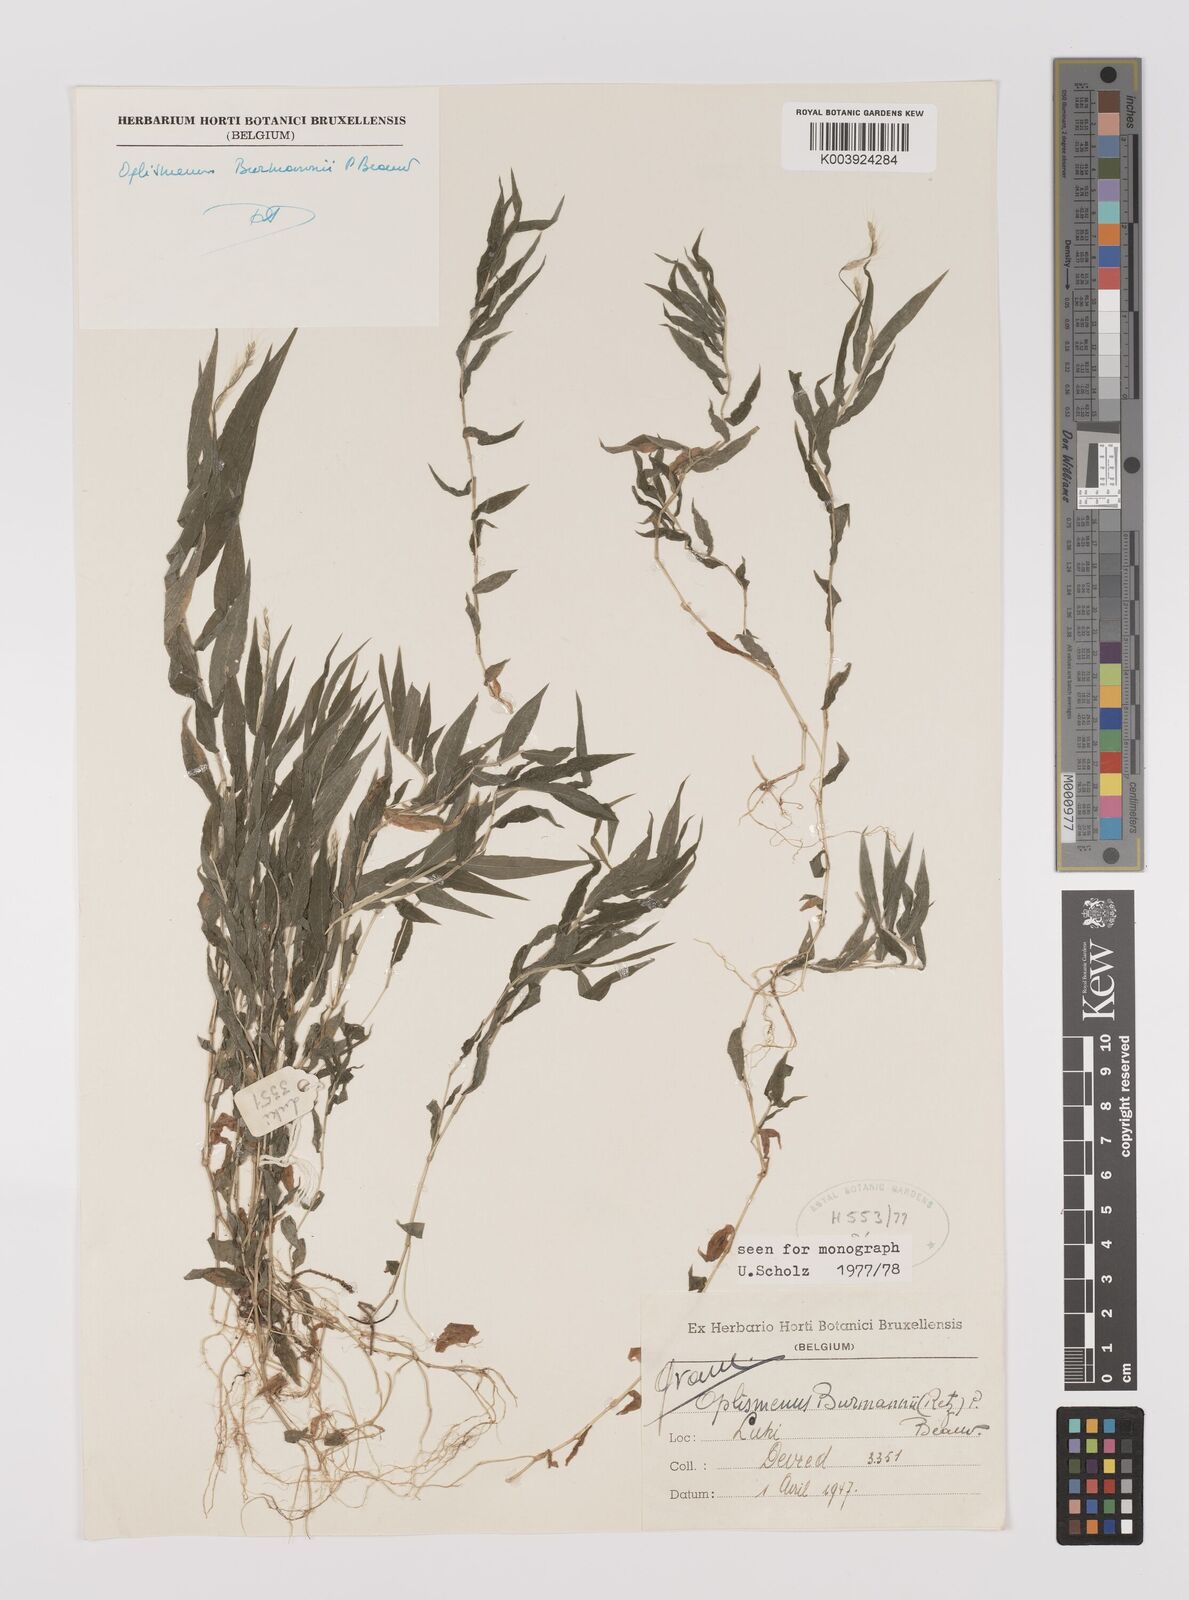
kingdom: Plantae
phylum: Tracheophyta
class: Liliopsida
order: Poales
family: Poaceae
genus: Oplismenus
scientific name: Oplismenus burmanni
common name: Burmann's basketgrass
